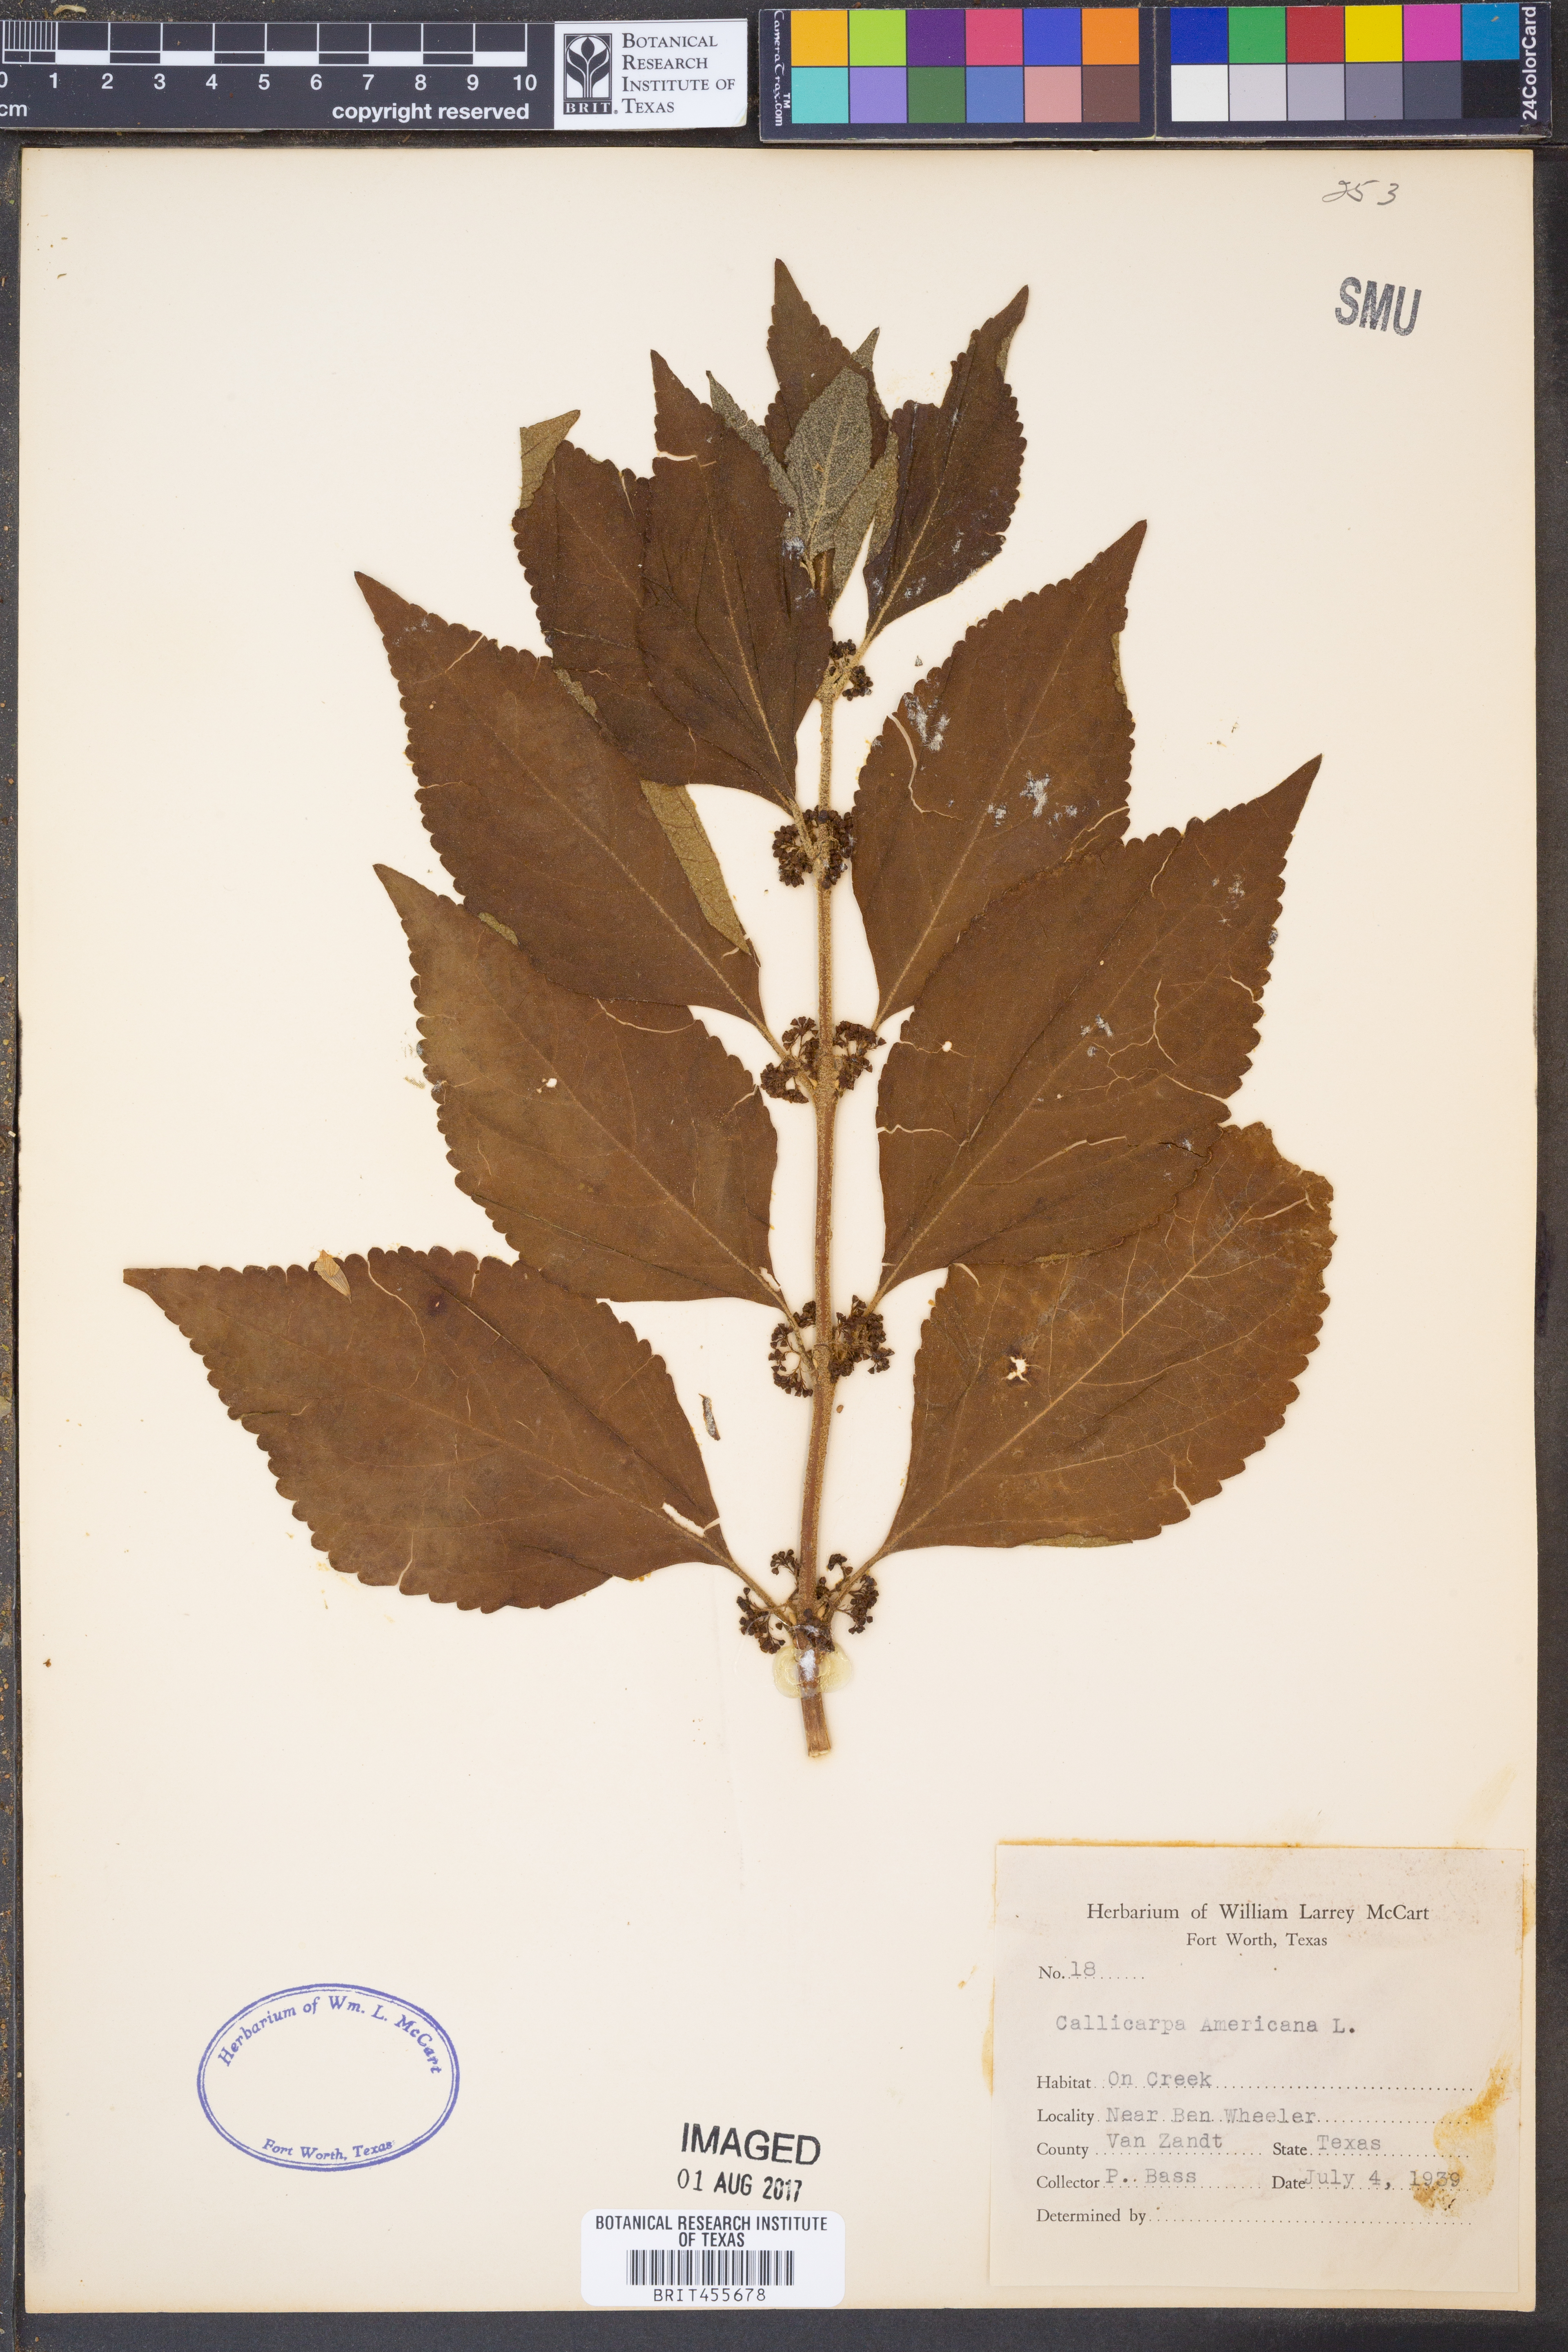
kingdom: Plantae
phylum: Tracheophyta
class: Magnoliopsida
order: Lamiales
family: Lamiaceae
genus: Callicarpa
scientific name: Callicarpa americana
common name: American beautyberry
